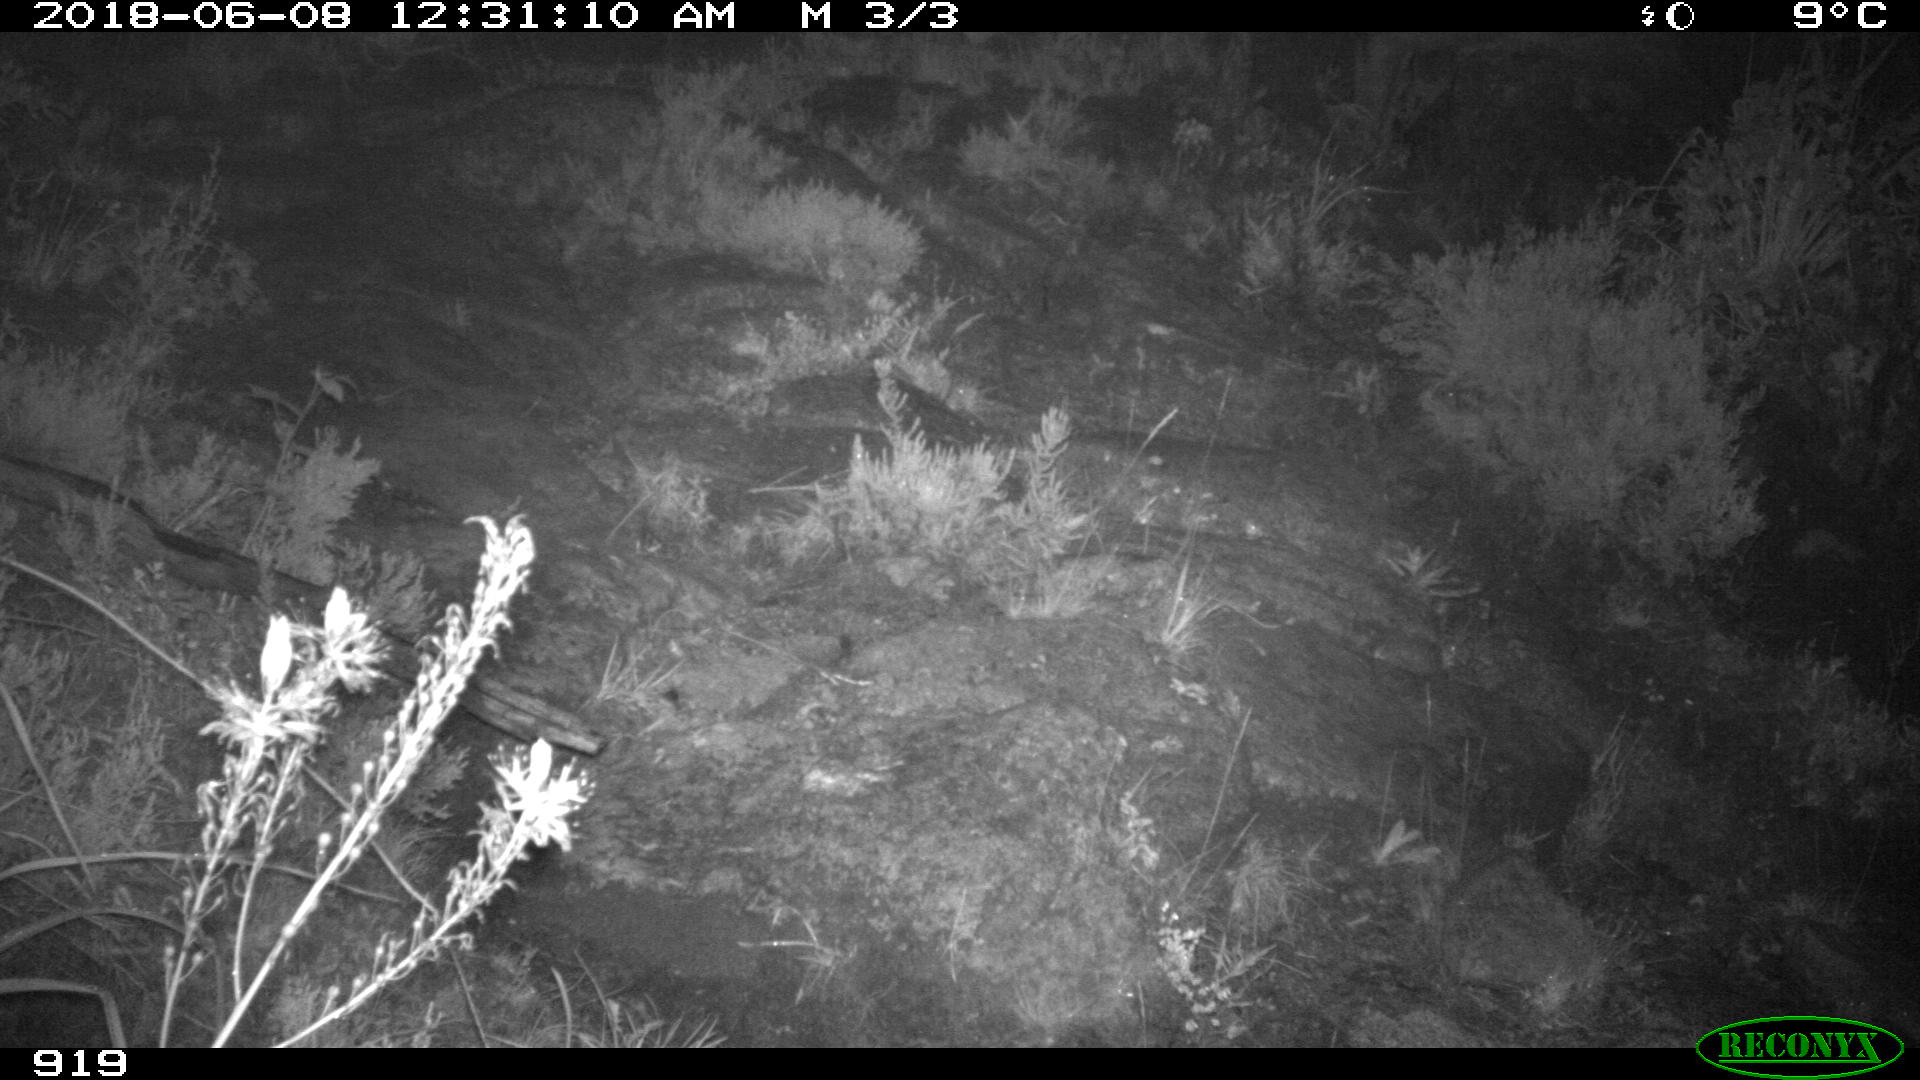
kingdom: Animalia
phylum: Chordata
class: Mammalia
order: Artiodactyla
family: Bovidae
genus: Bos
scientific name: Bos taurus
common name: Domesticated cattle
